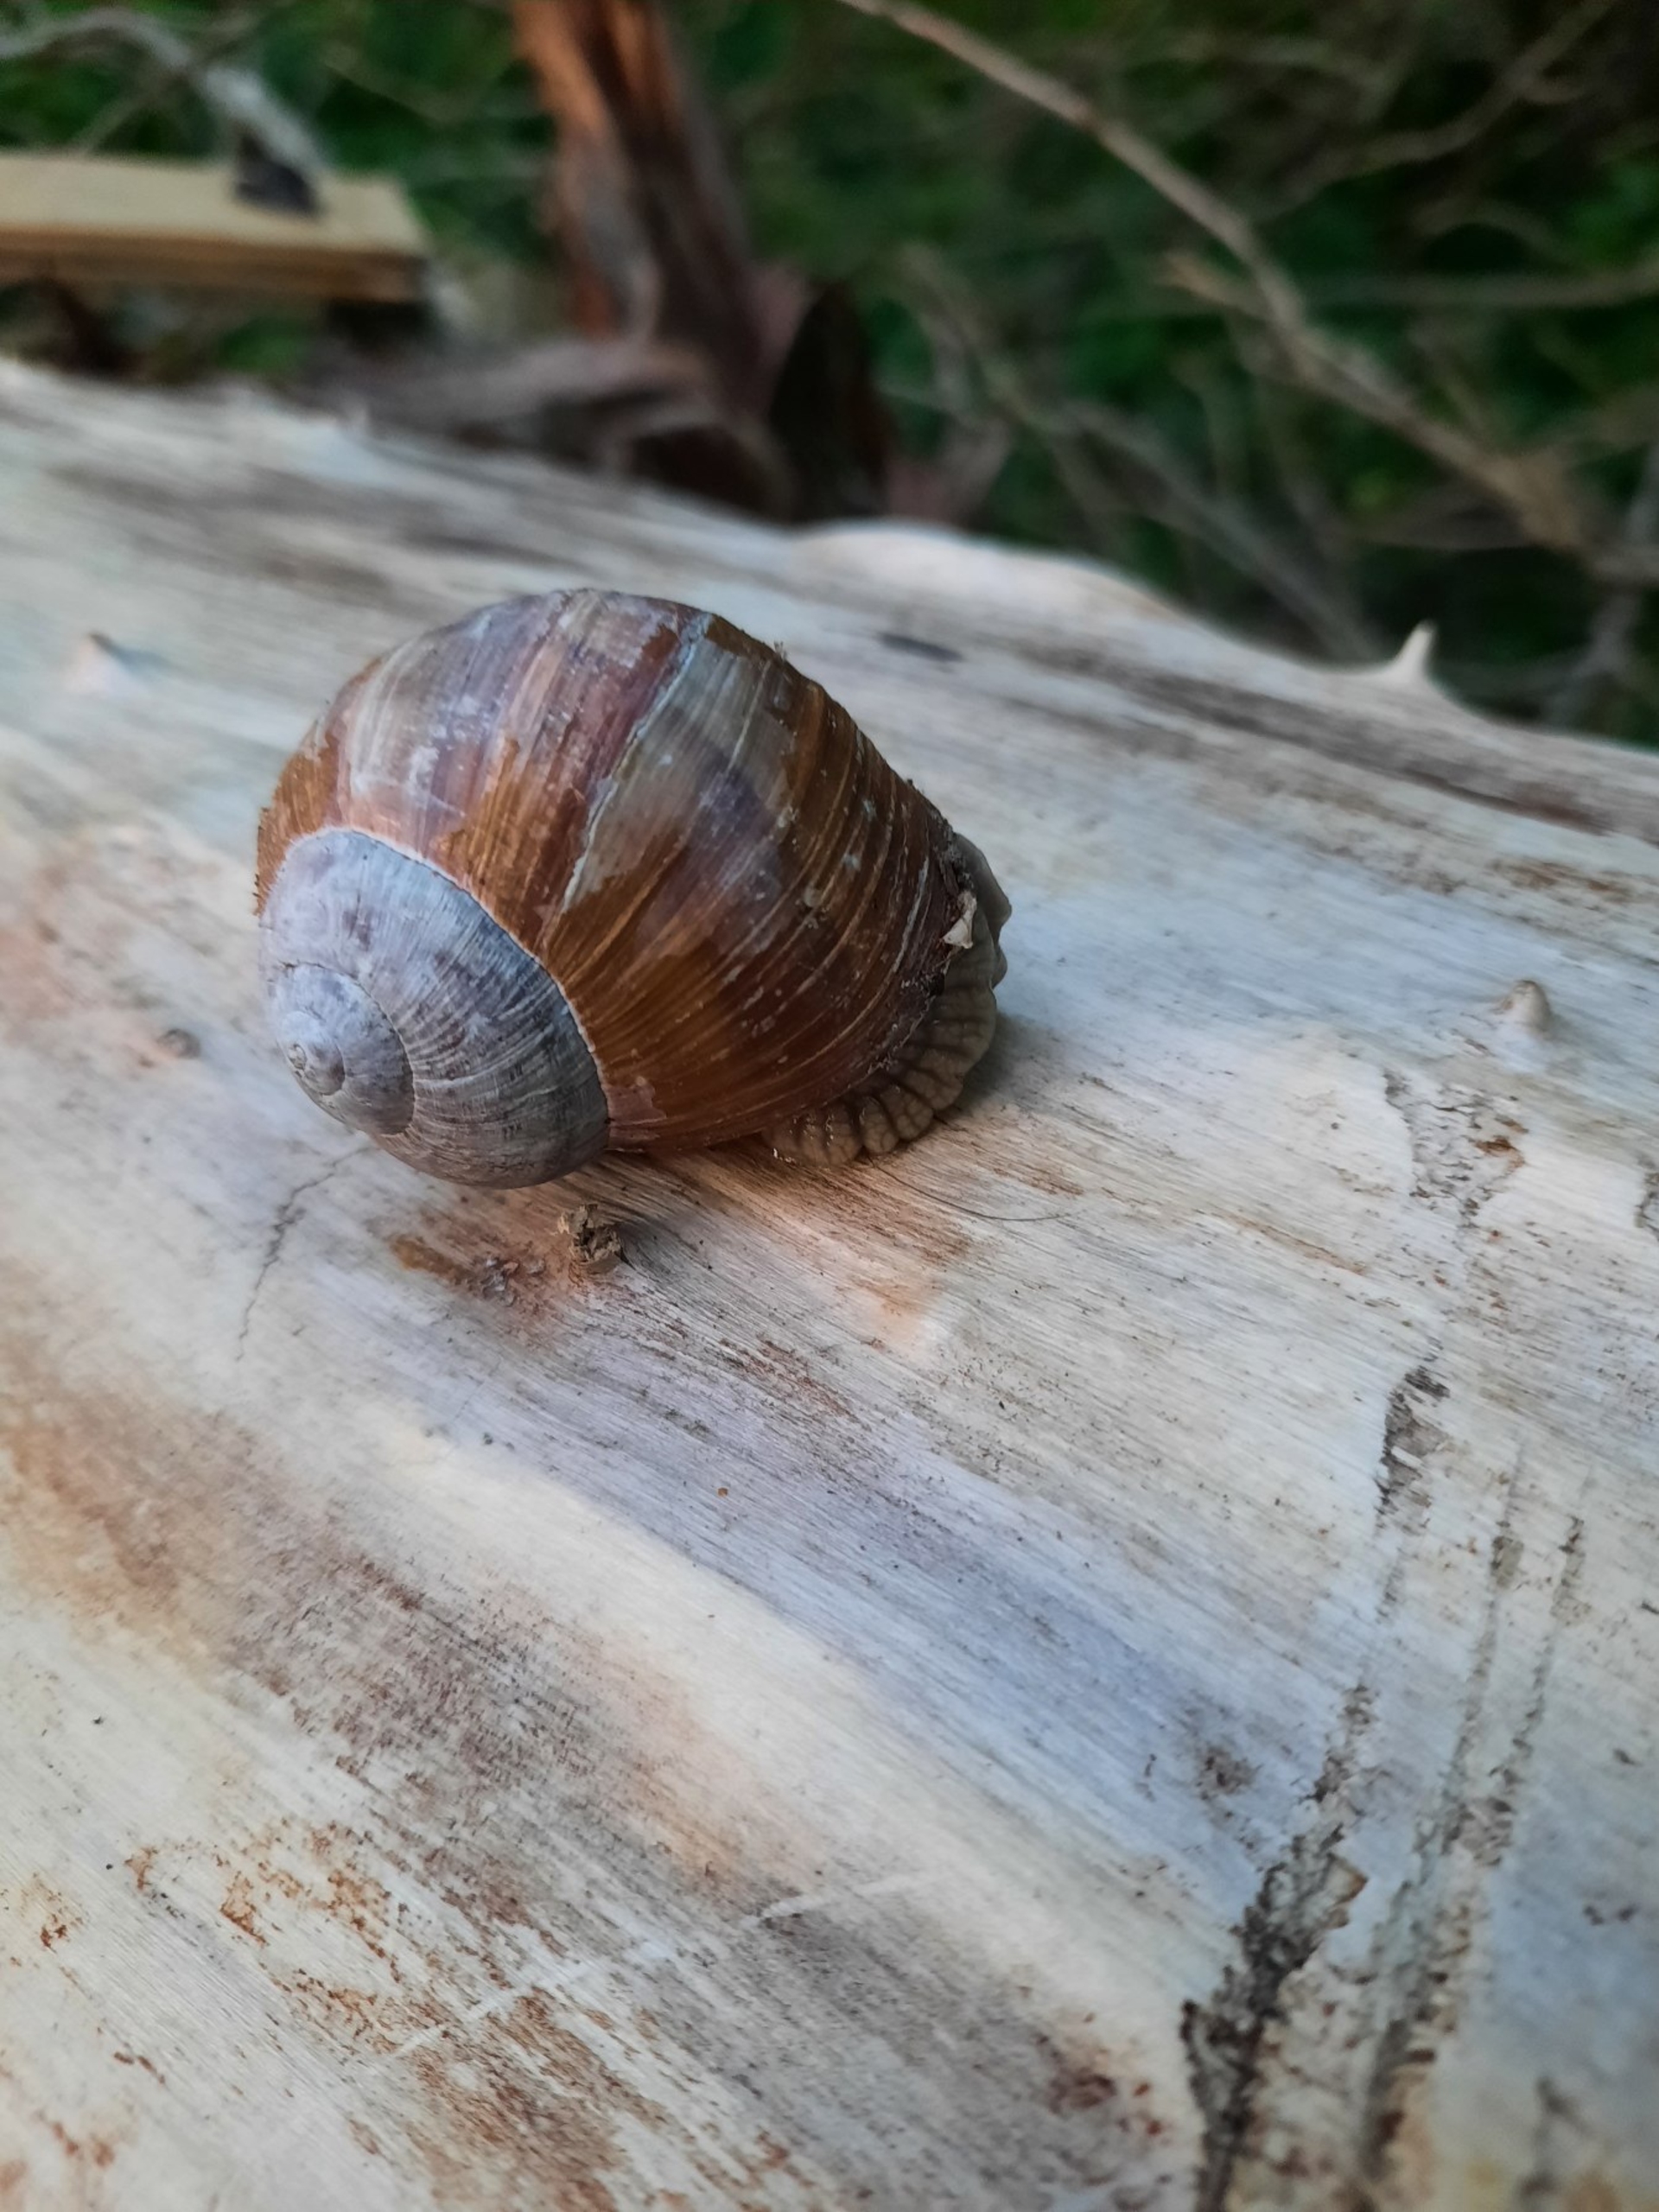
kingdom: Animalia
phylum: Mollusca
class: Gastropoda
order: Stylommatophora
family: Helicidae
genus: Helix
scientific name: Helix pomatia
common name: Vinbjergsnegl
